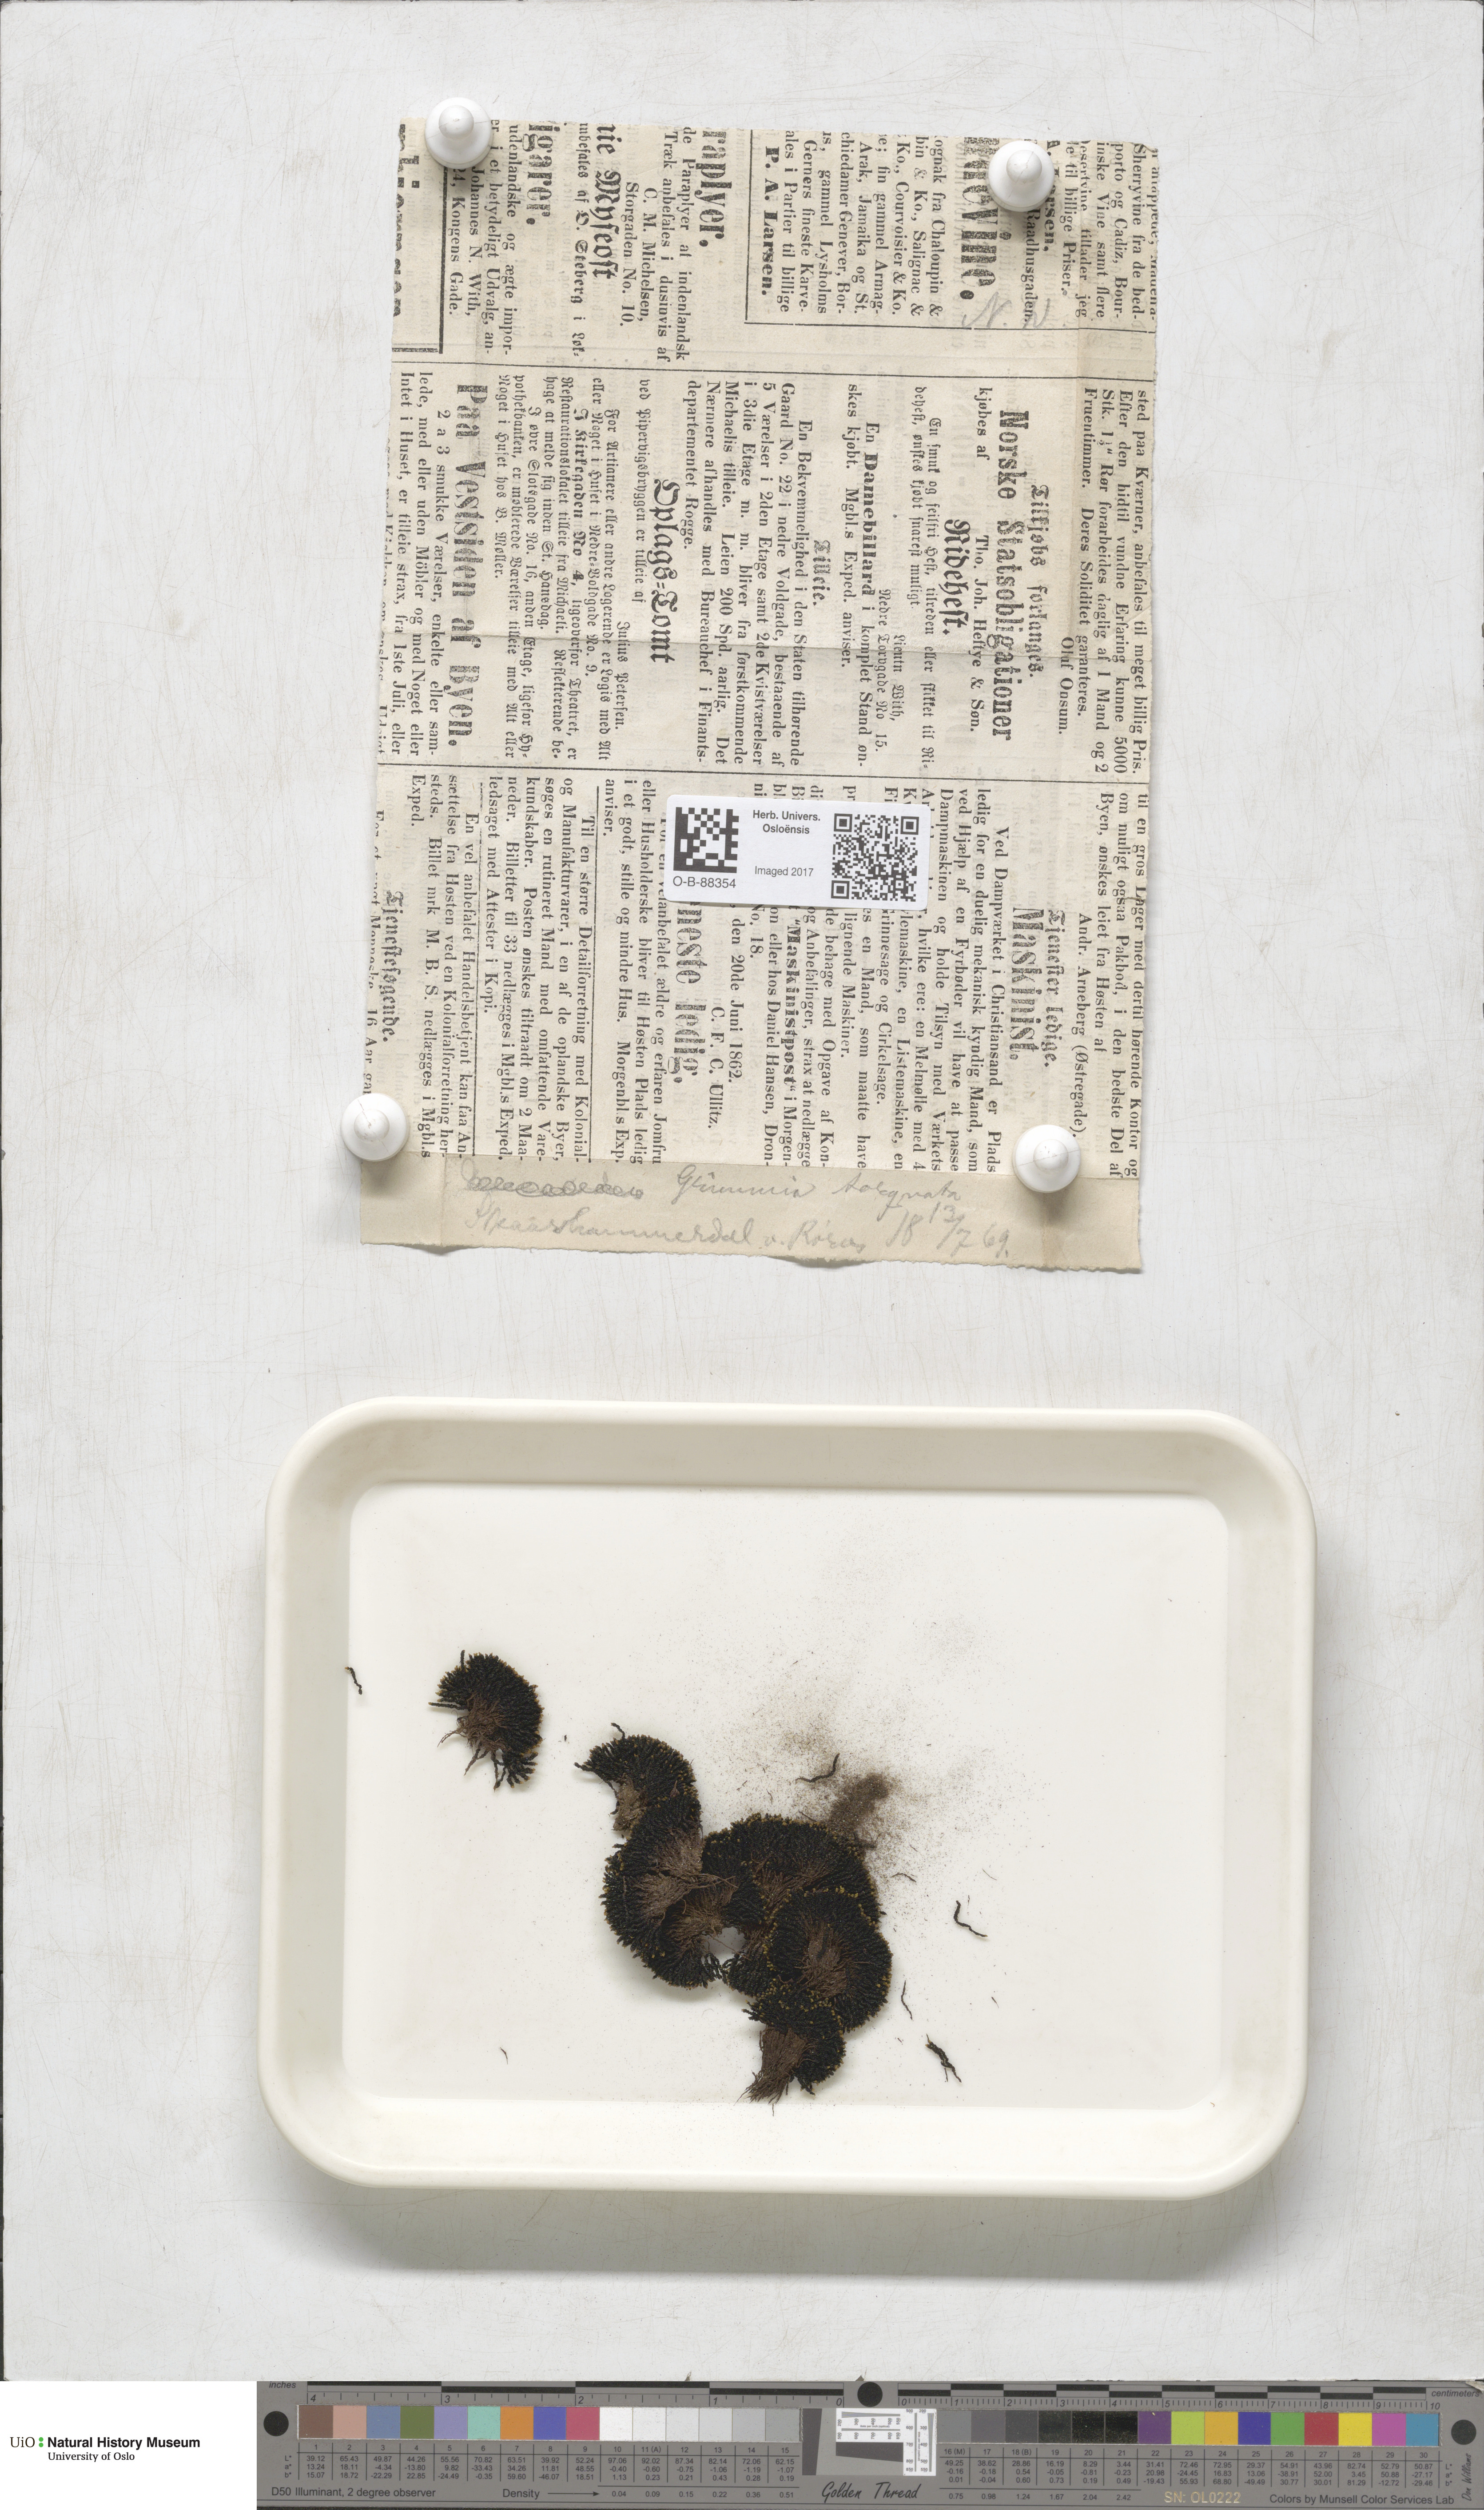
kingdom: Plantae
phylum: Bryophyta
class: Bryopsida
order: Grimmiales
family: Grimmiaceae
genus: Grimmia
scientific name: Grimmia torquata
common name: Twisted grimmia
